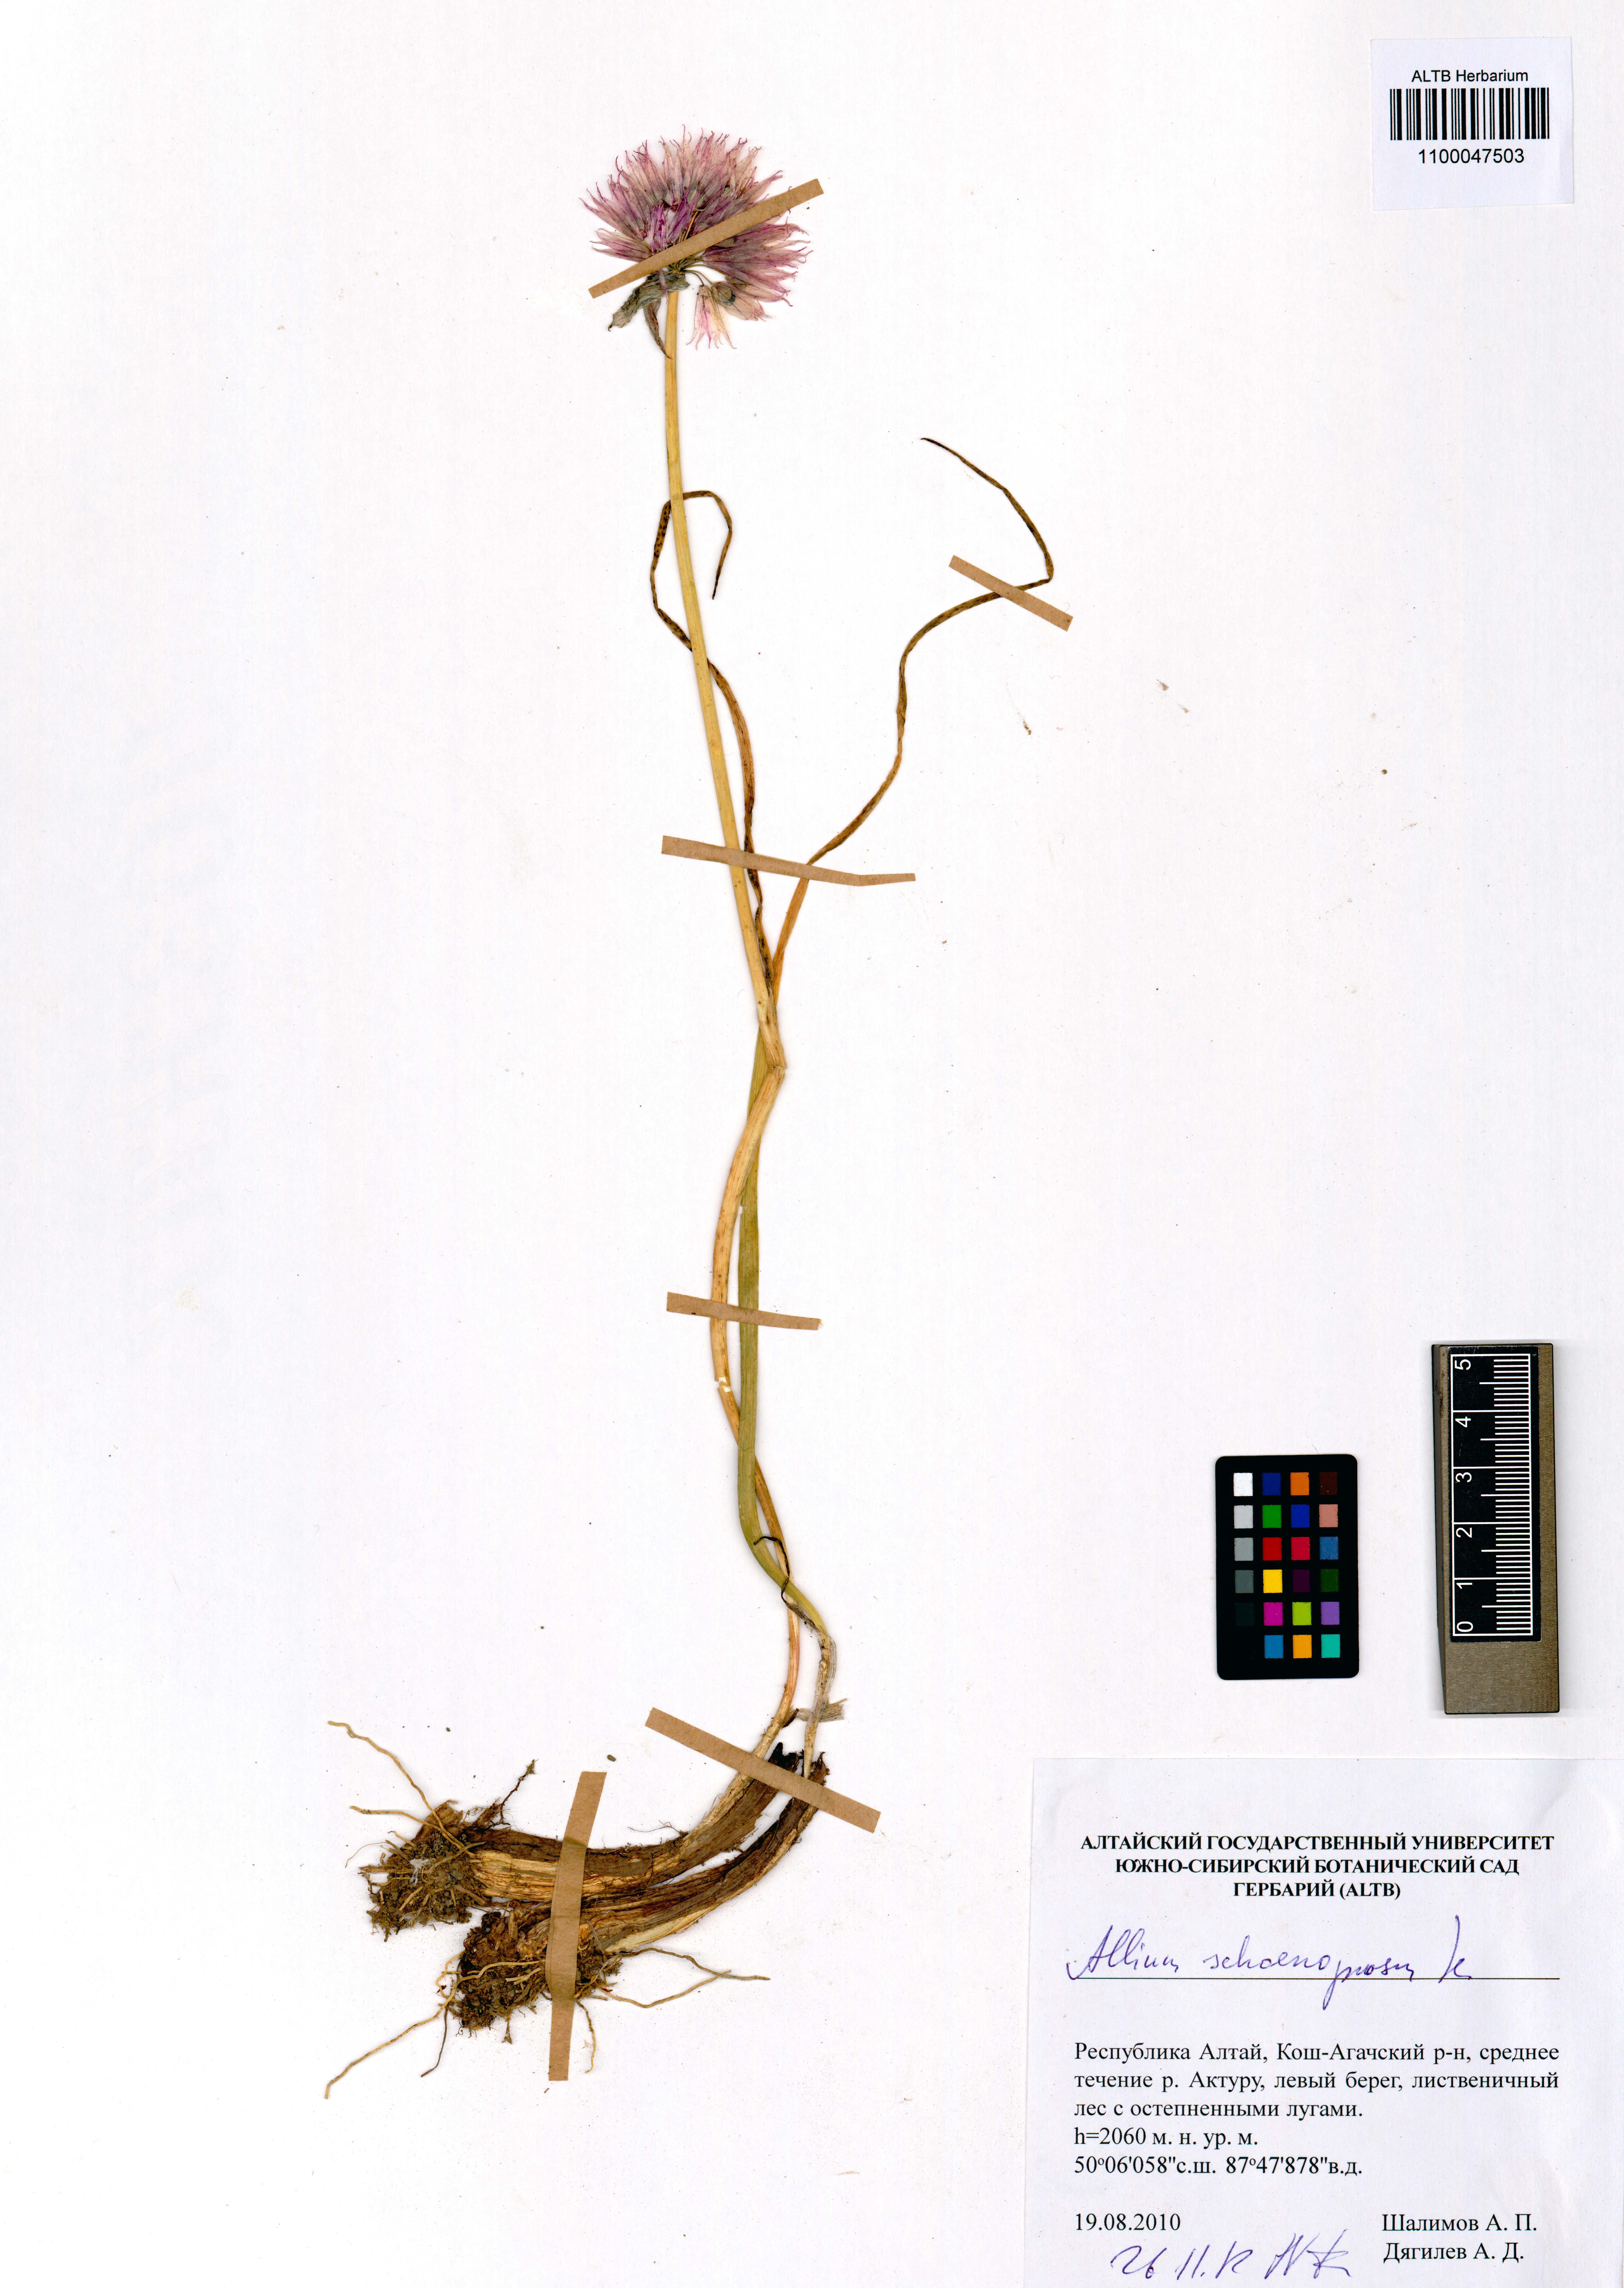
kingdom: Plantae
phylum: Tracheophyta
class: Liliopsida
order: Asparagales
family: Amaryllidaceae
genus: Allium
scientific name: Allium schoenoprasum
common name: Chives
